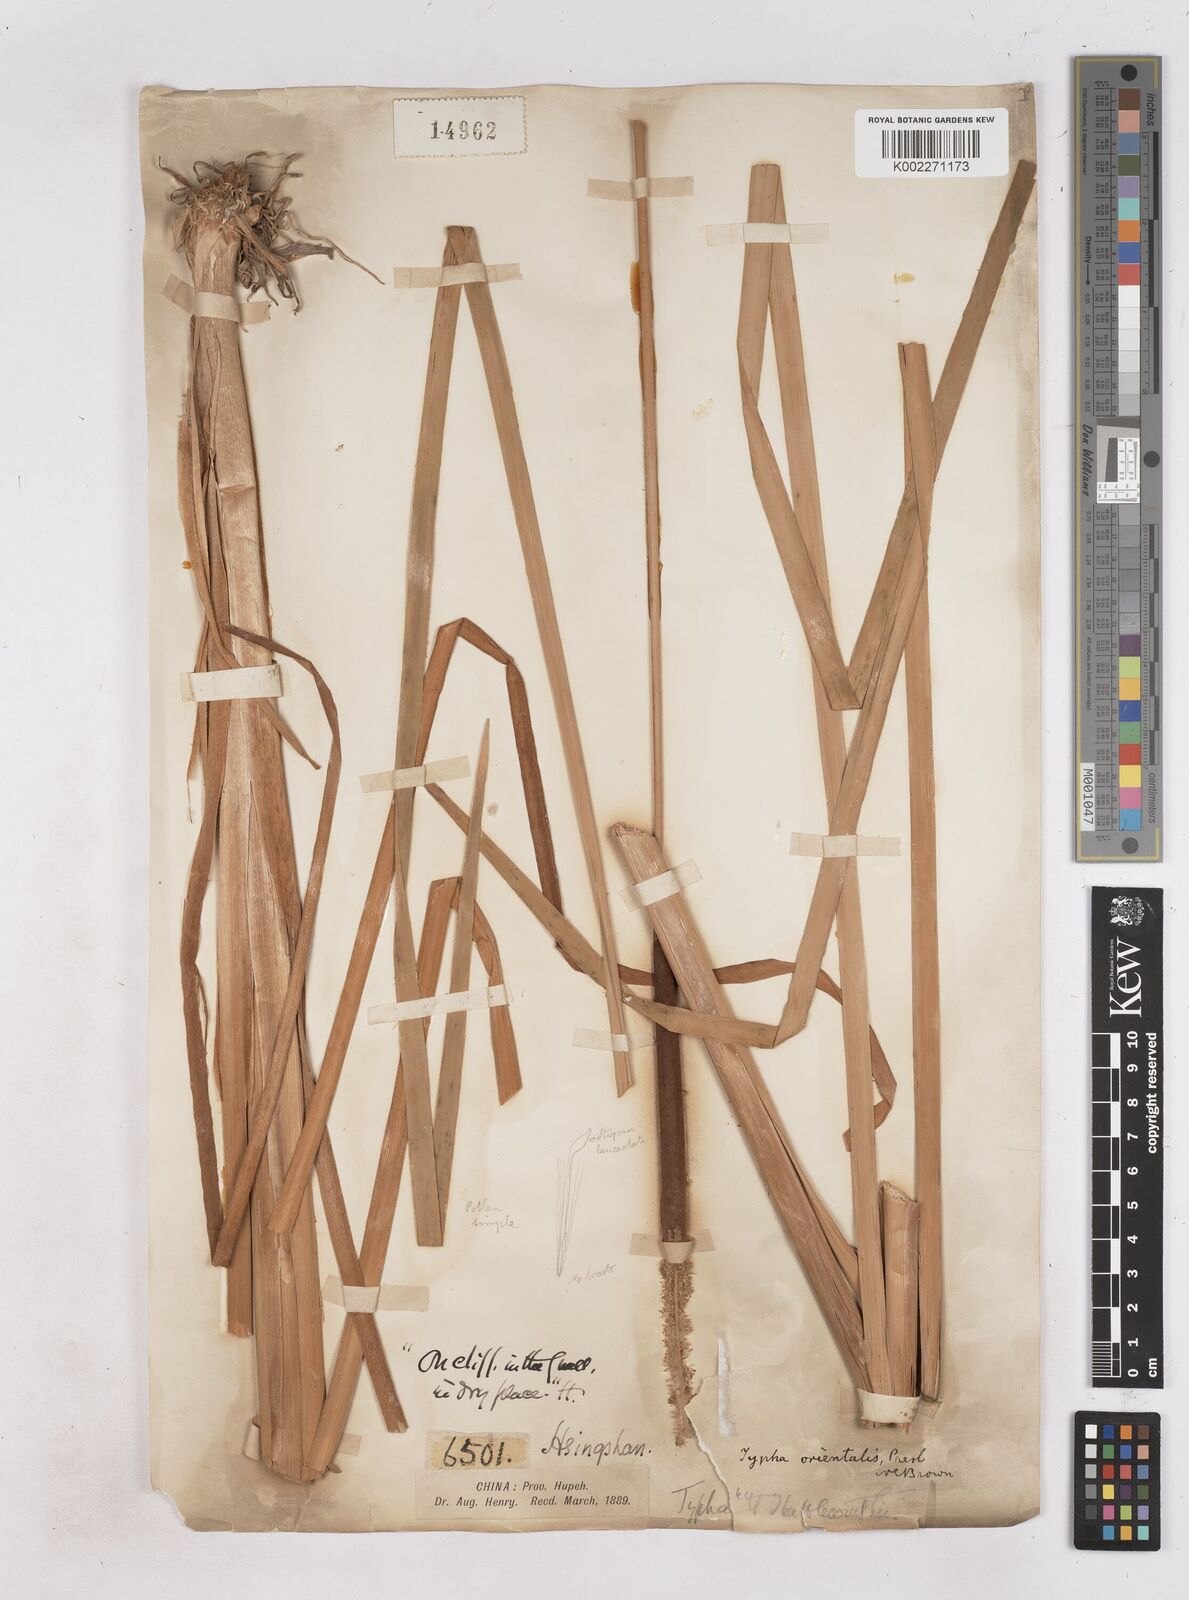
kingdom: Plantae
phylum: Tracheophyta
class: Liliopsida
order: Poales
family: Typhaceae
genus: Typha
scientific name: Typha shuttleworthii
